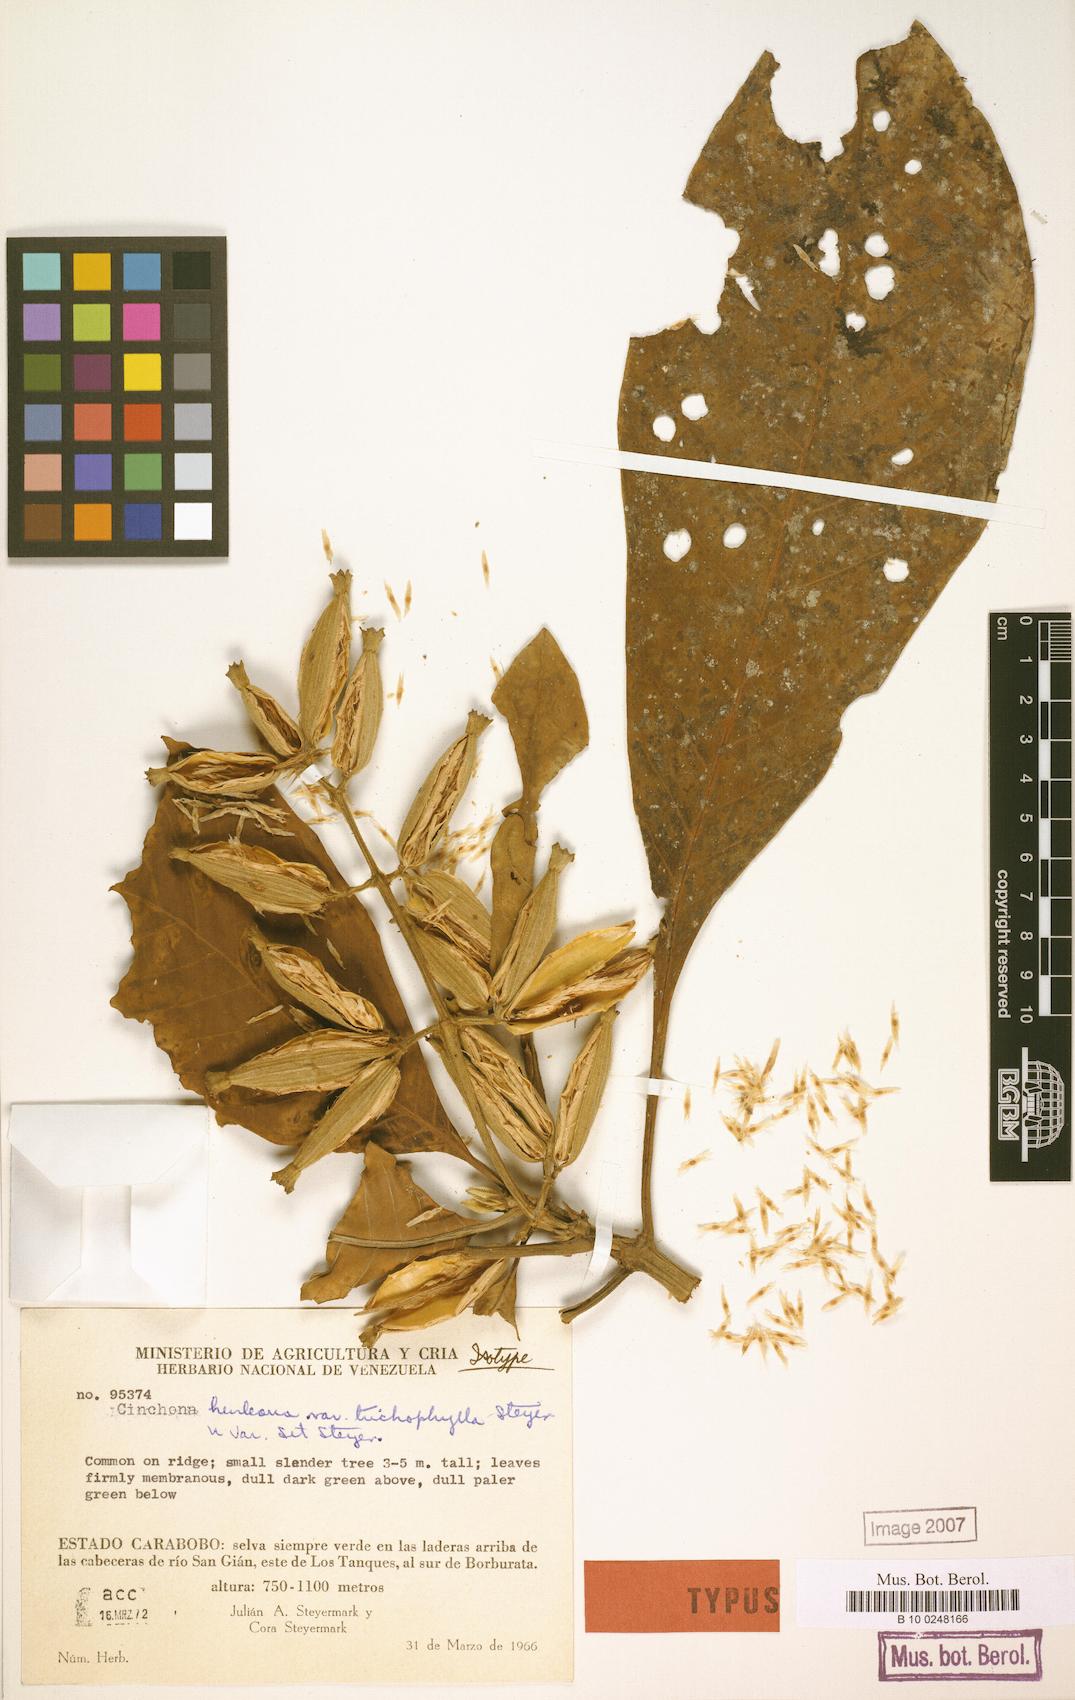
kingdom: Plantae
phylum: Tracheophyta
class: Magnoliopsida
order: Gentianales
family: Rubiaceae
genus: Ladenbergia
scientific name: Ladenbergia muzonensis
